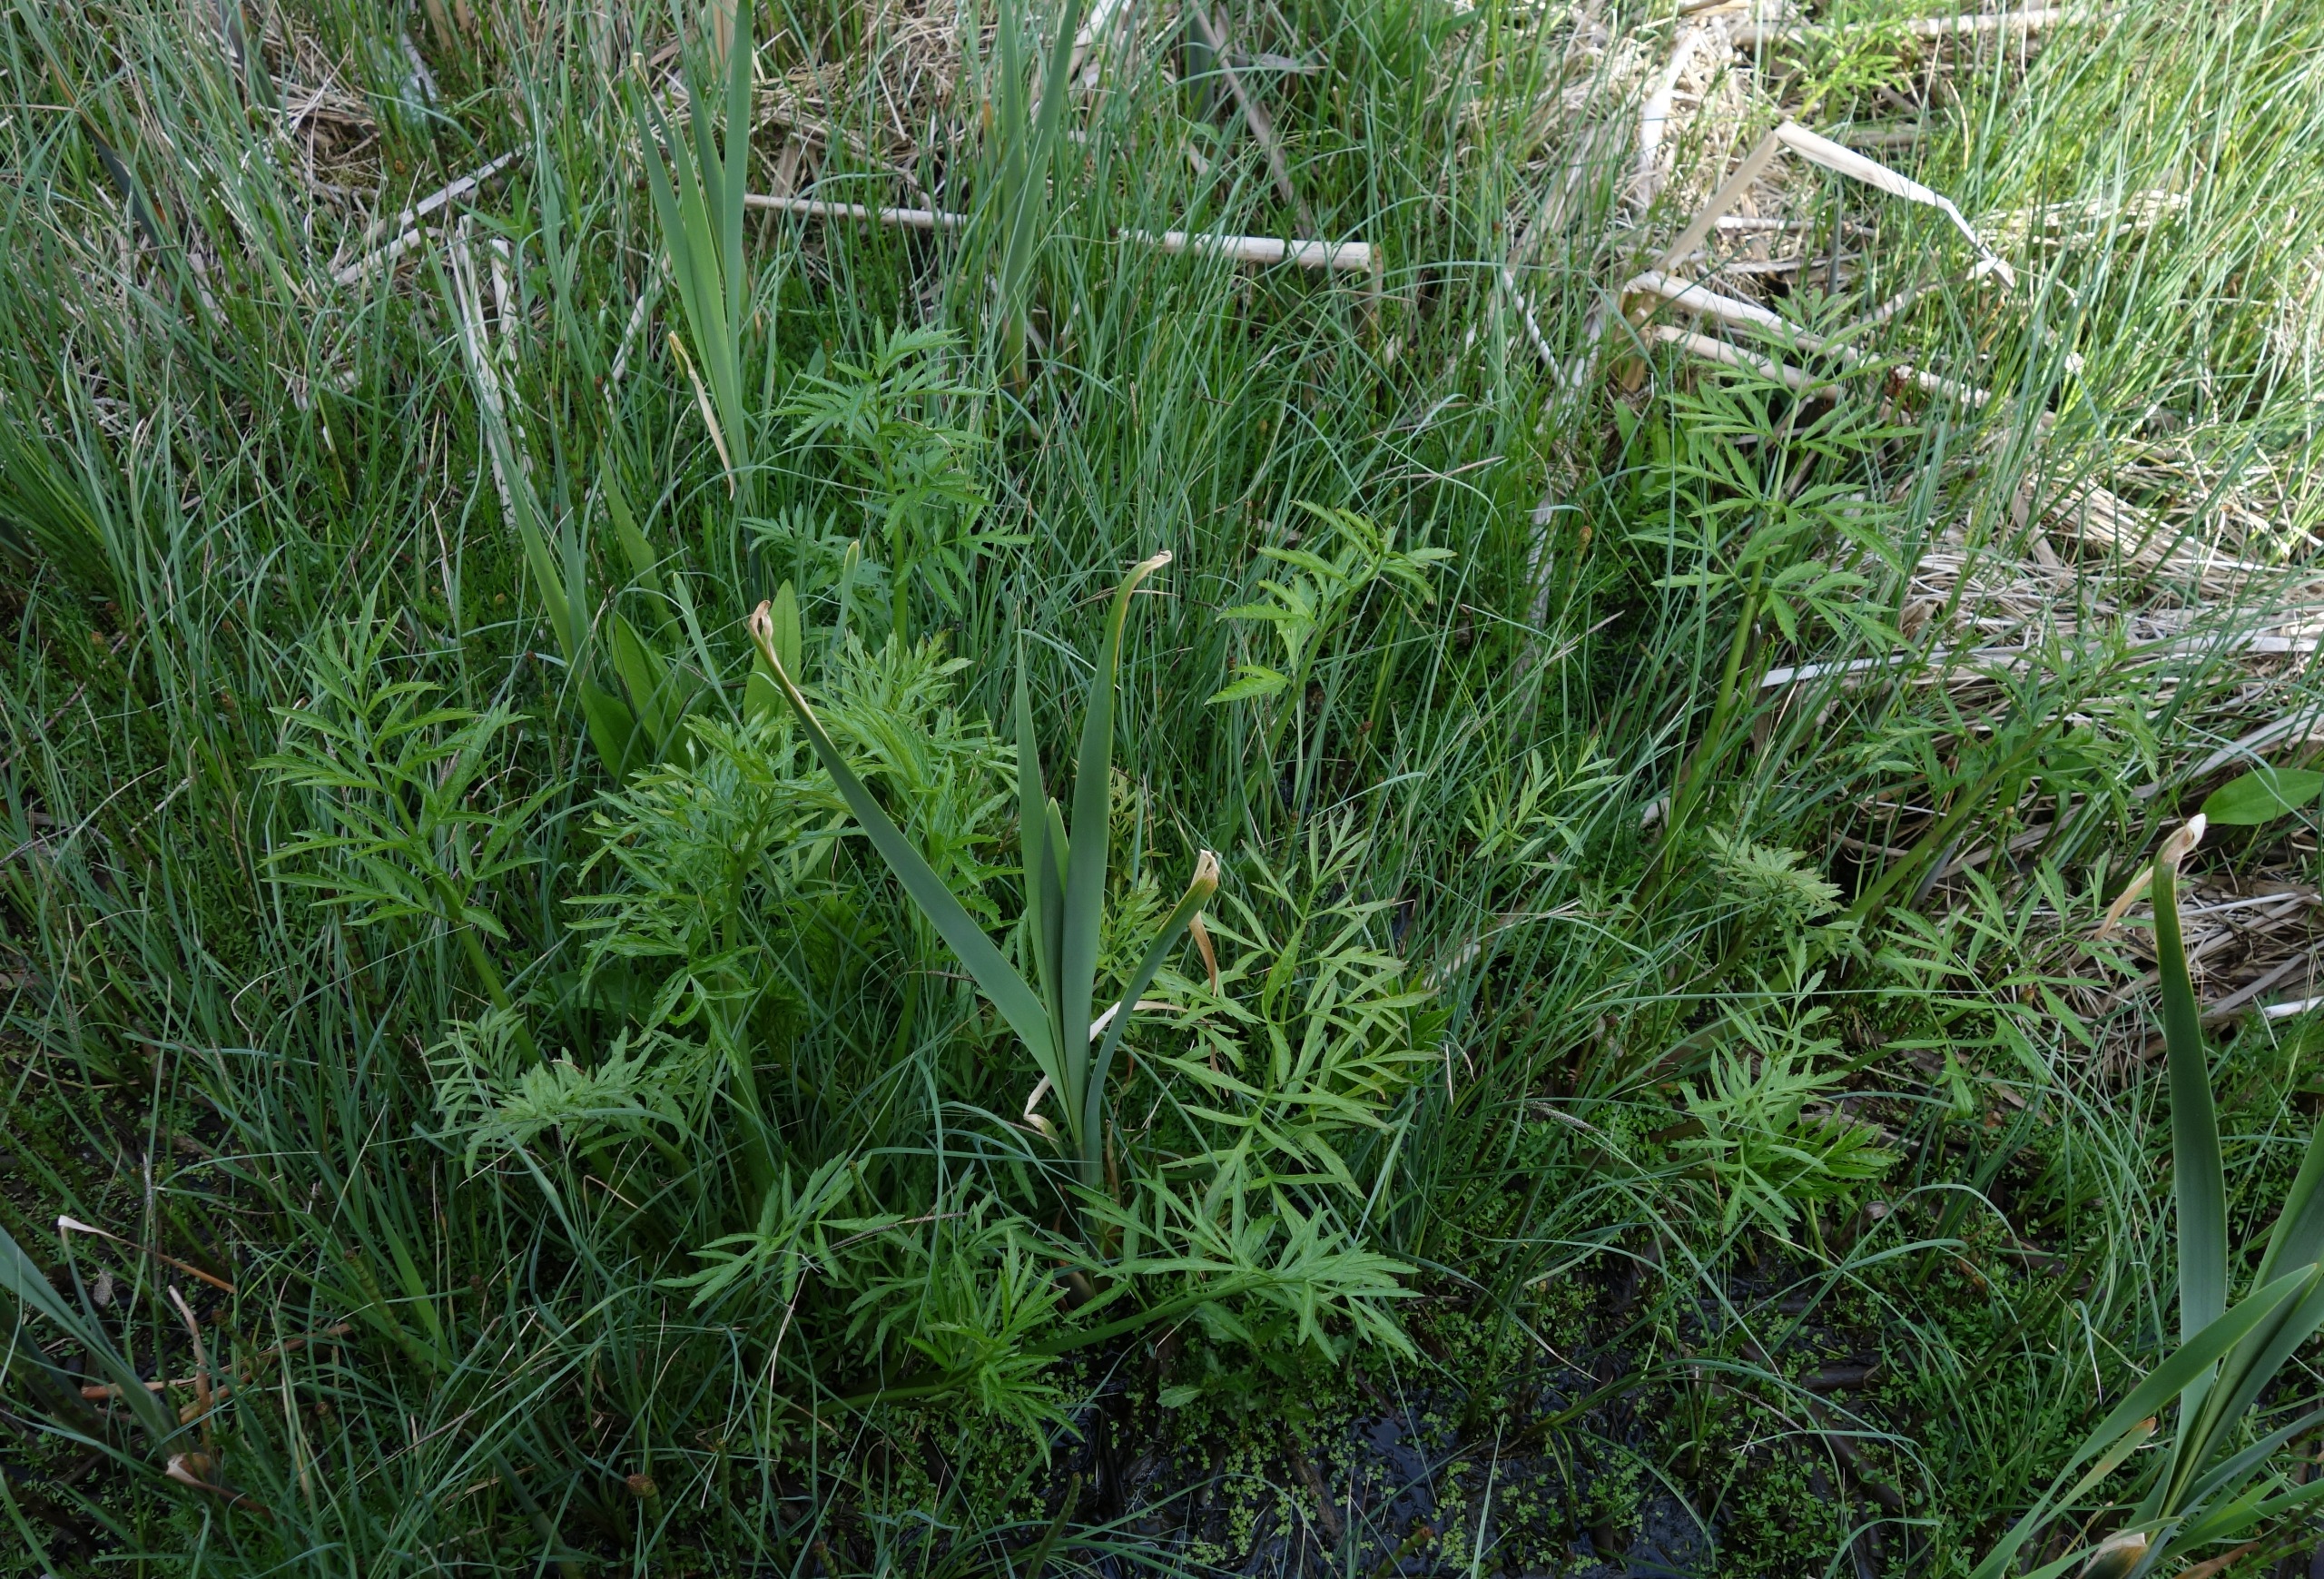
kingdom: Plantae
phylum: Tracheophyta
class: Magnoliopsida
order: Apiales
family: Apiaceae
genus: Cicuta
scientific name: Cicuta virosa
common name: Gifttyde
